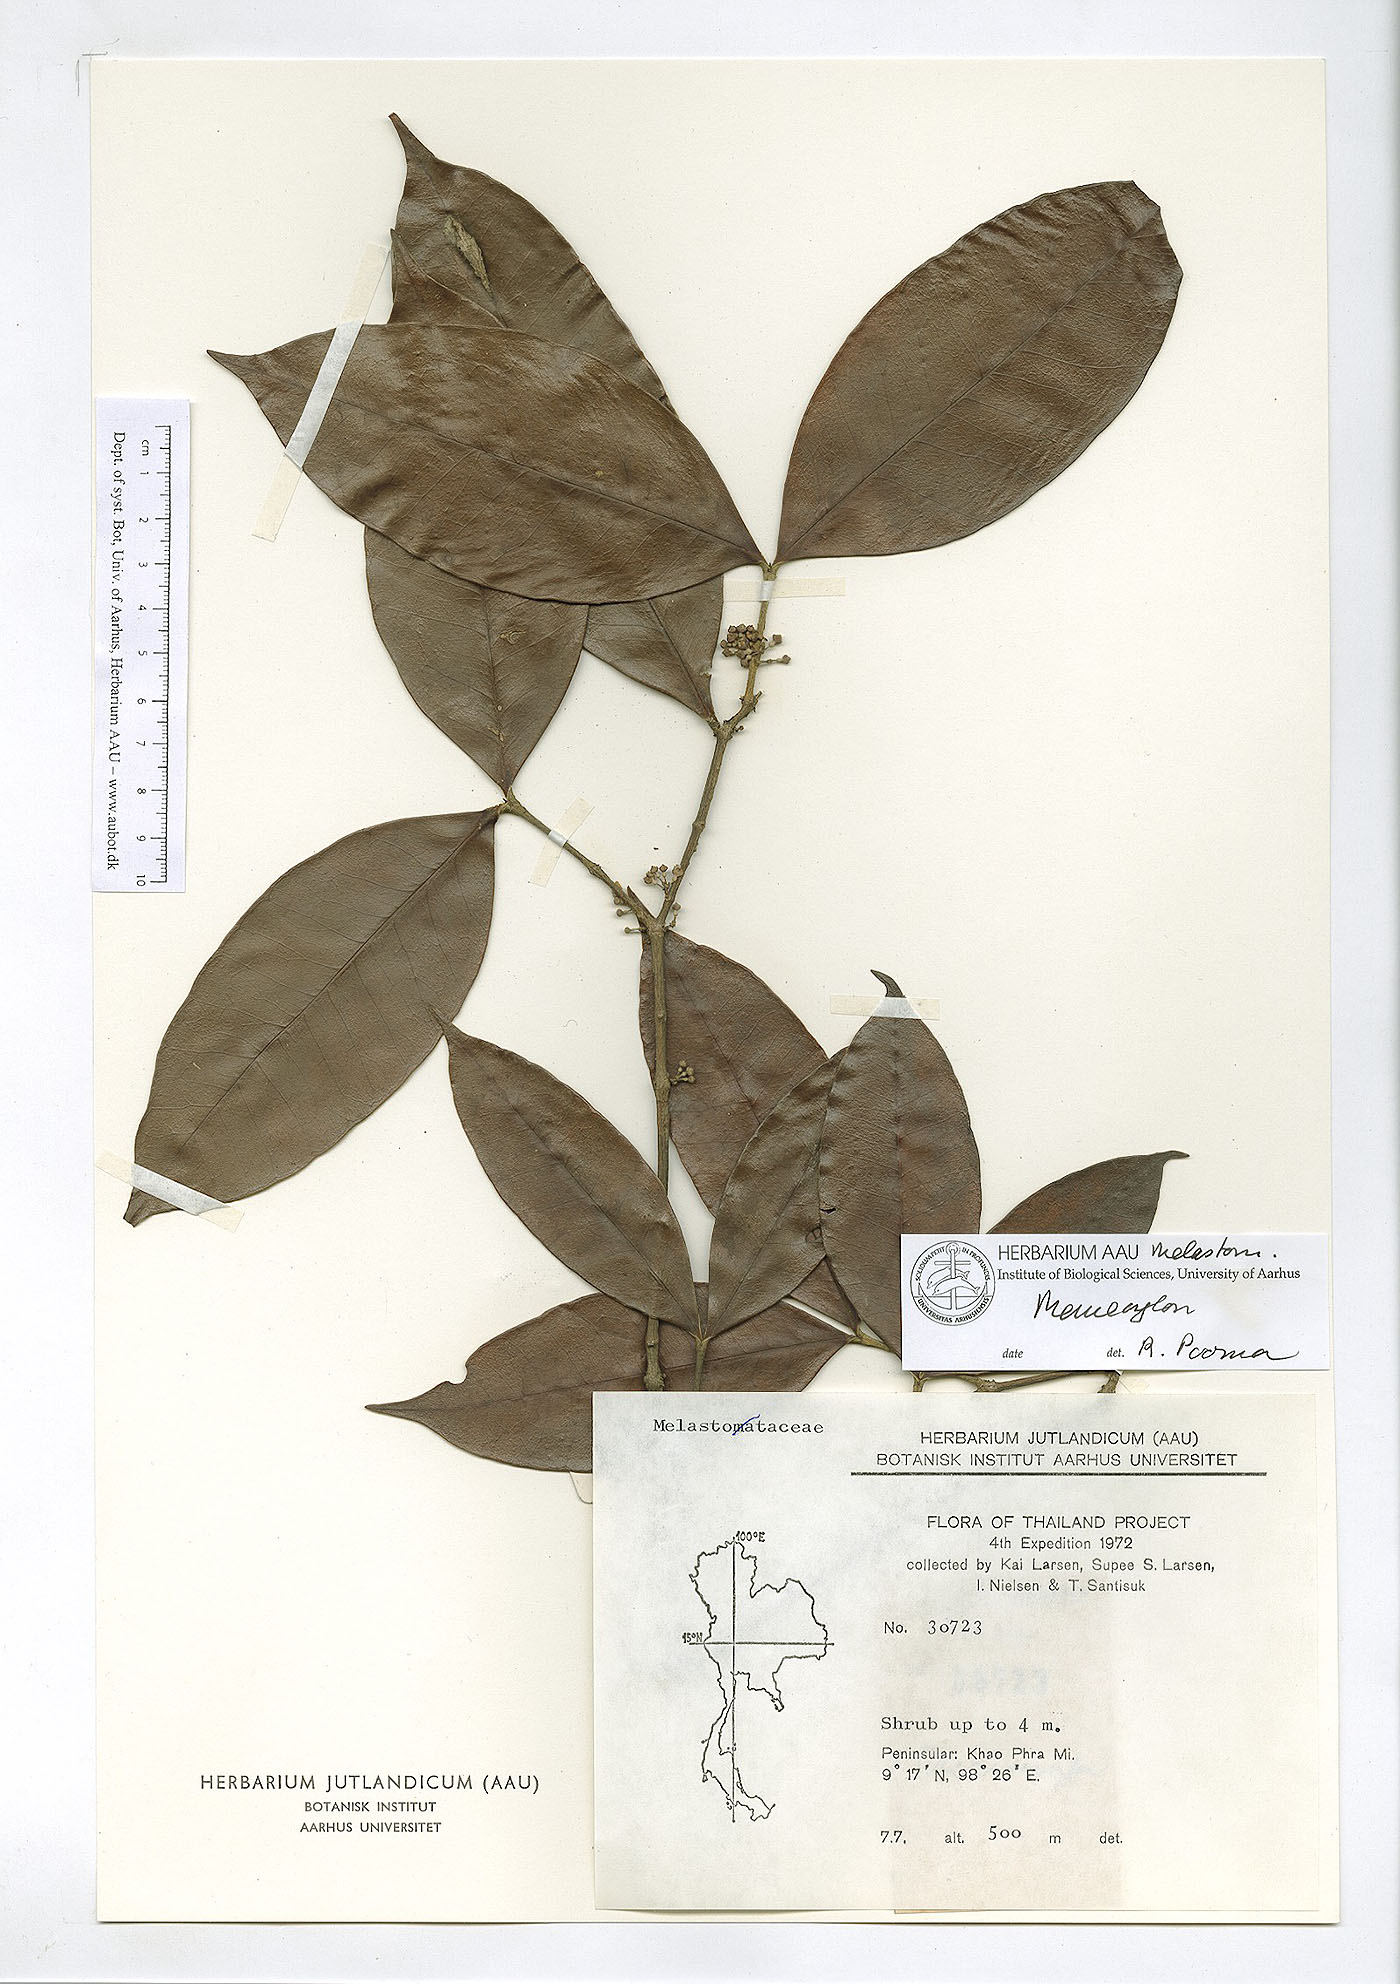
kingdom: Plantae
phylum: Tracheophyta
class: Magnoliopsida
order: Myrtales
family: Melastomataceae
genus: Memecylon
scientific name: Memecylon minutiflorum
